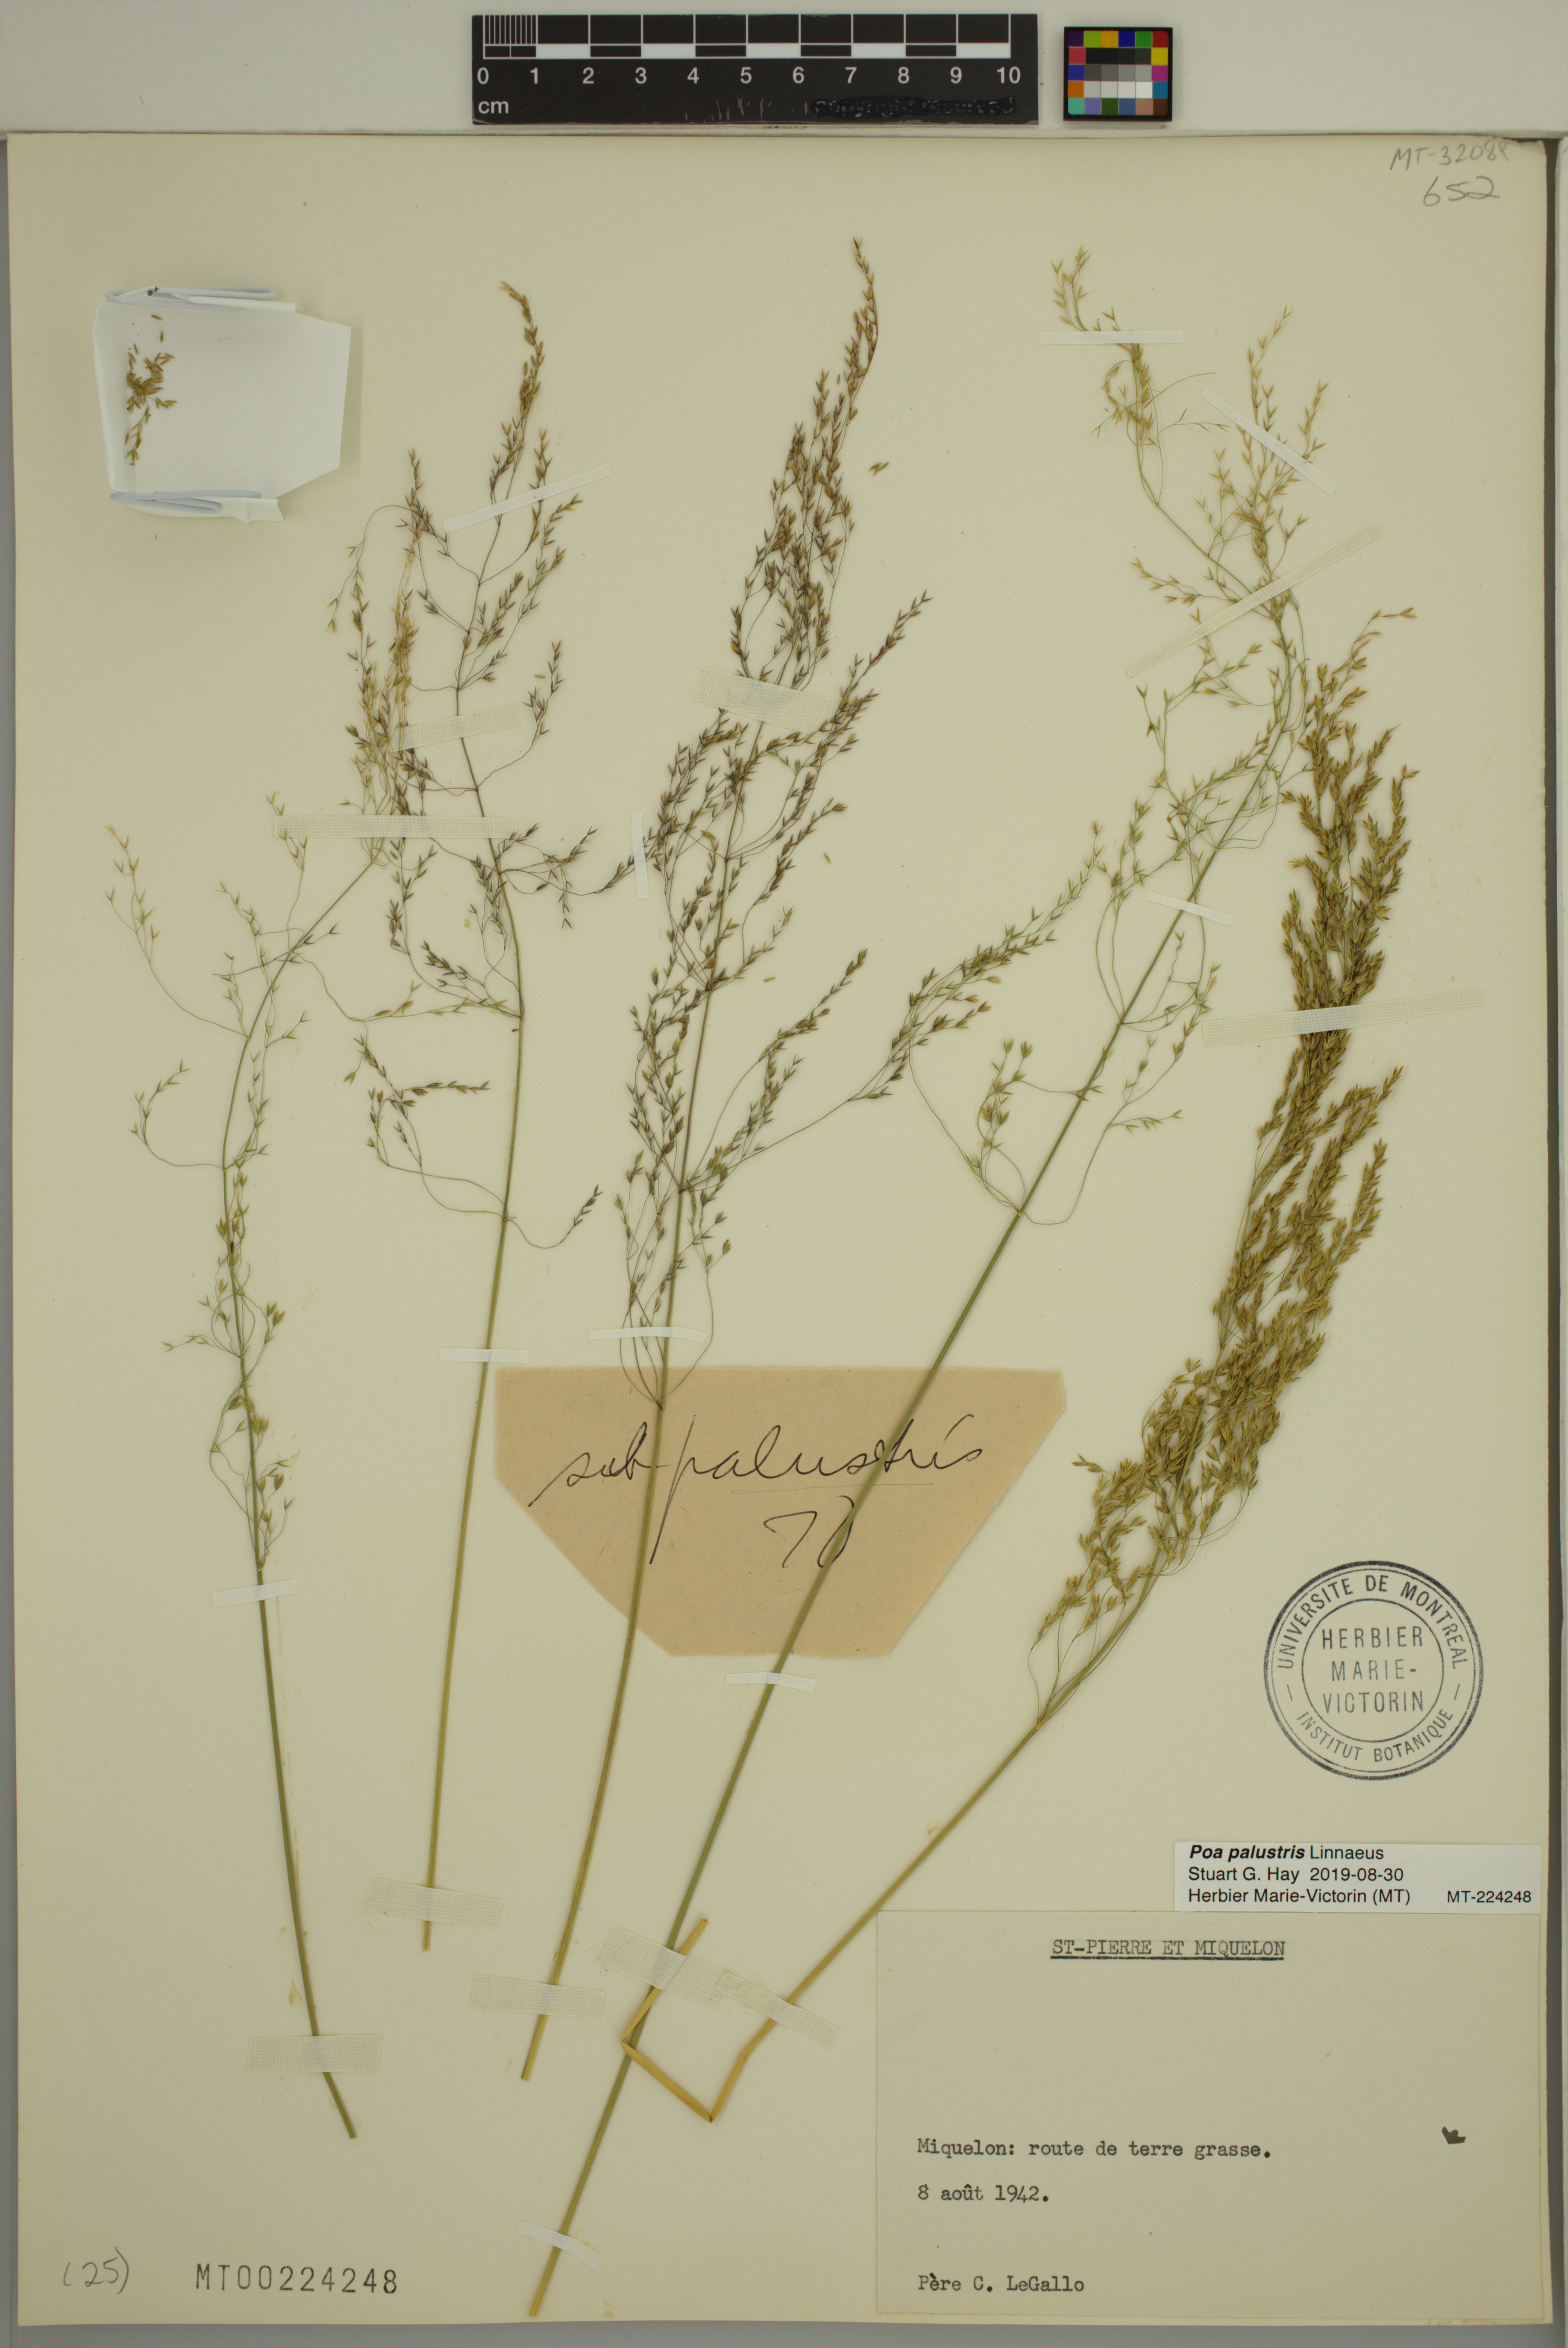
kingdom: Plantae
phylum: Tracheophyta
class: Liliopsida
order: Poales
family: Poaceae
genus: Poa
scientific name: Poa palustris
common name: Swamp meadow-grass
